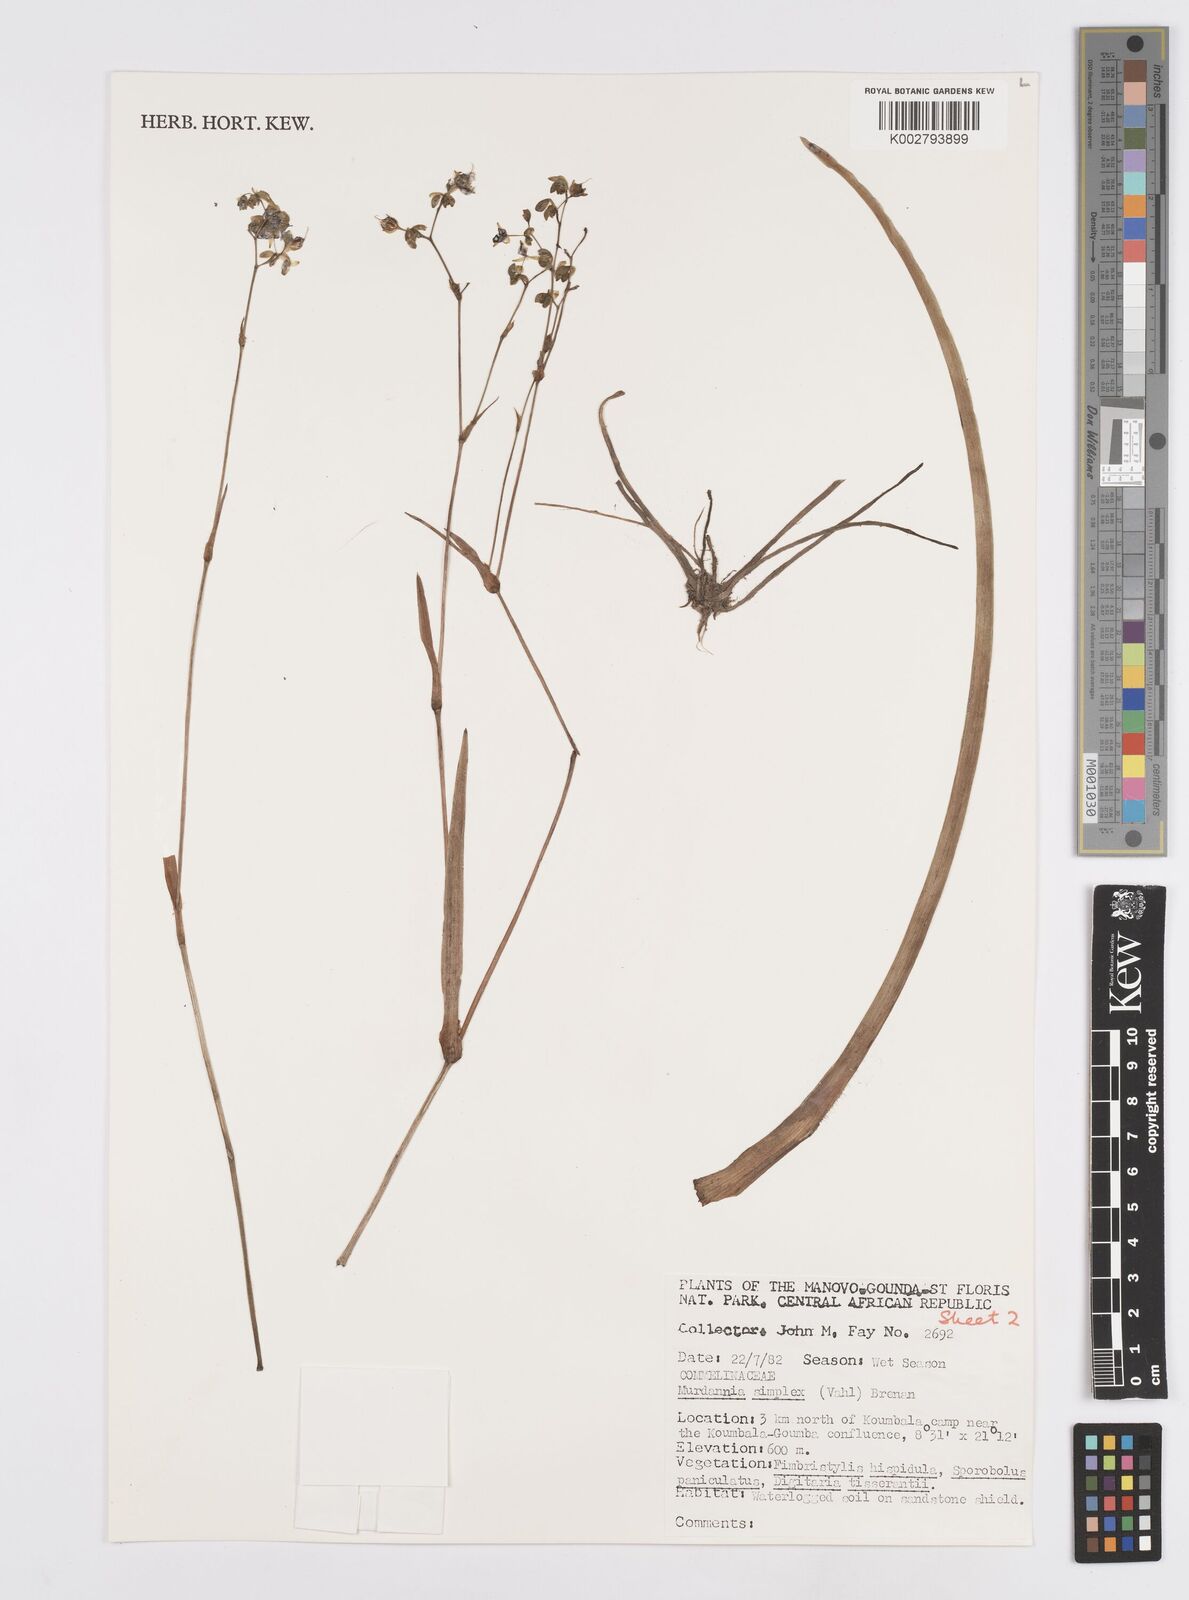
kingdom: Plantae
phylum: Tracheophyta
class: Liliopsida
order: Commelinales
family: Commelinaceae
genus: Murdannia
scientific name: Murdannia simplex
